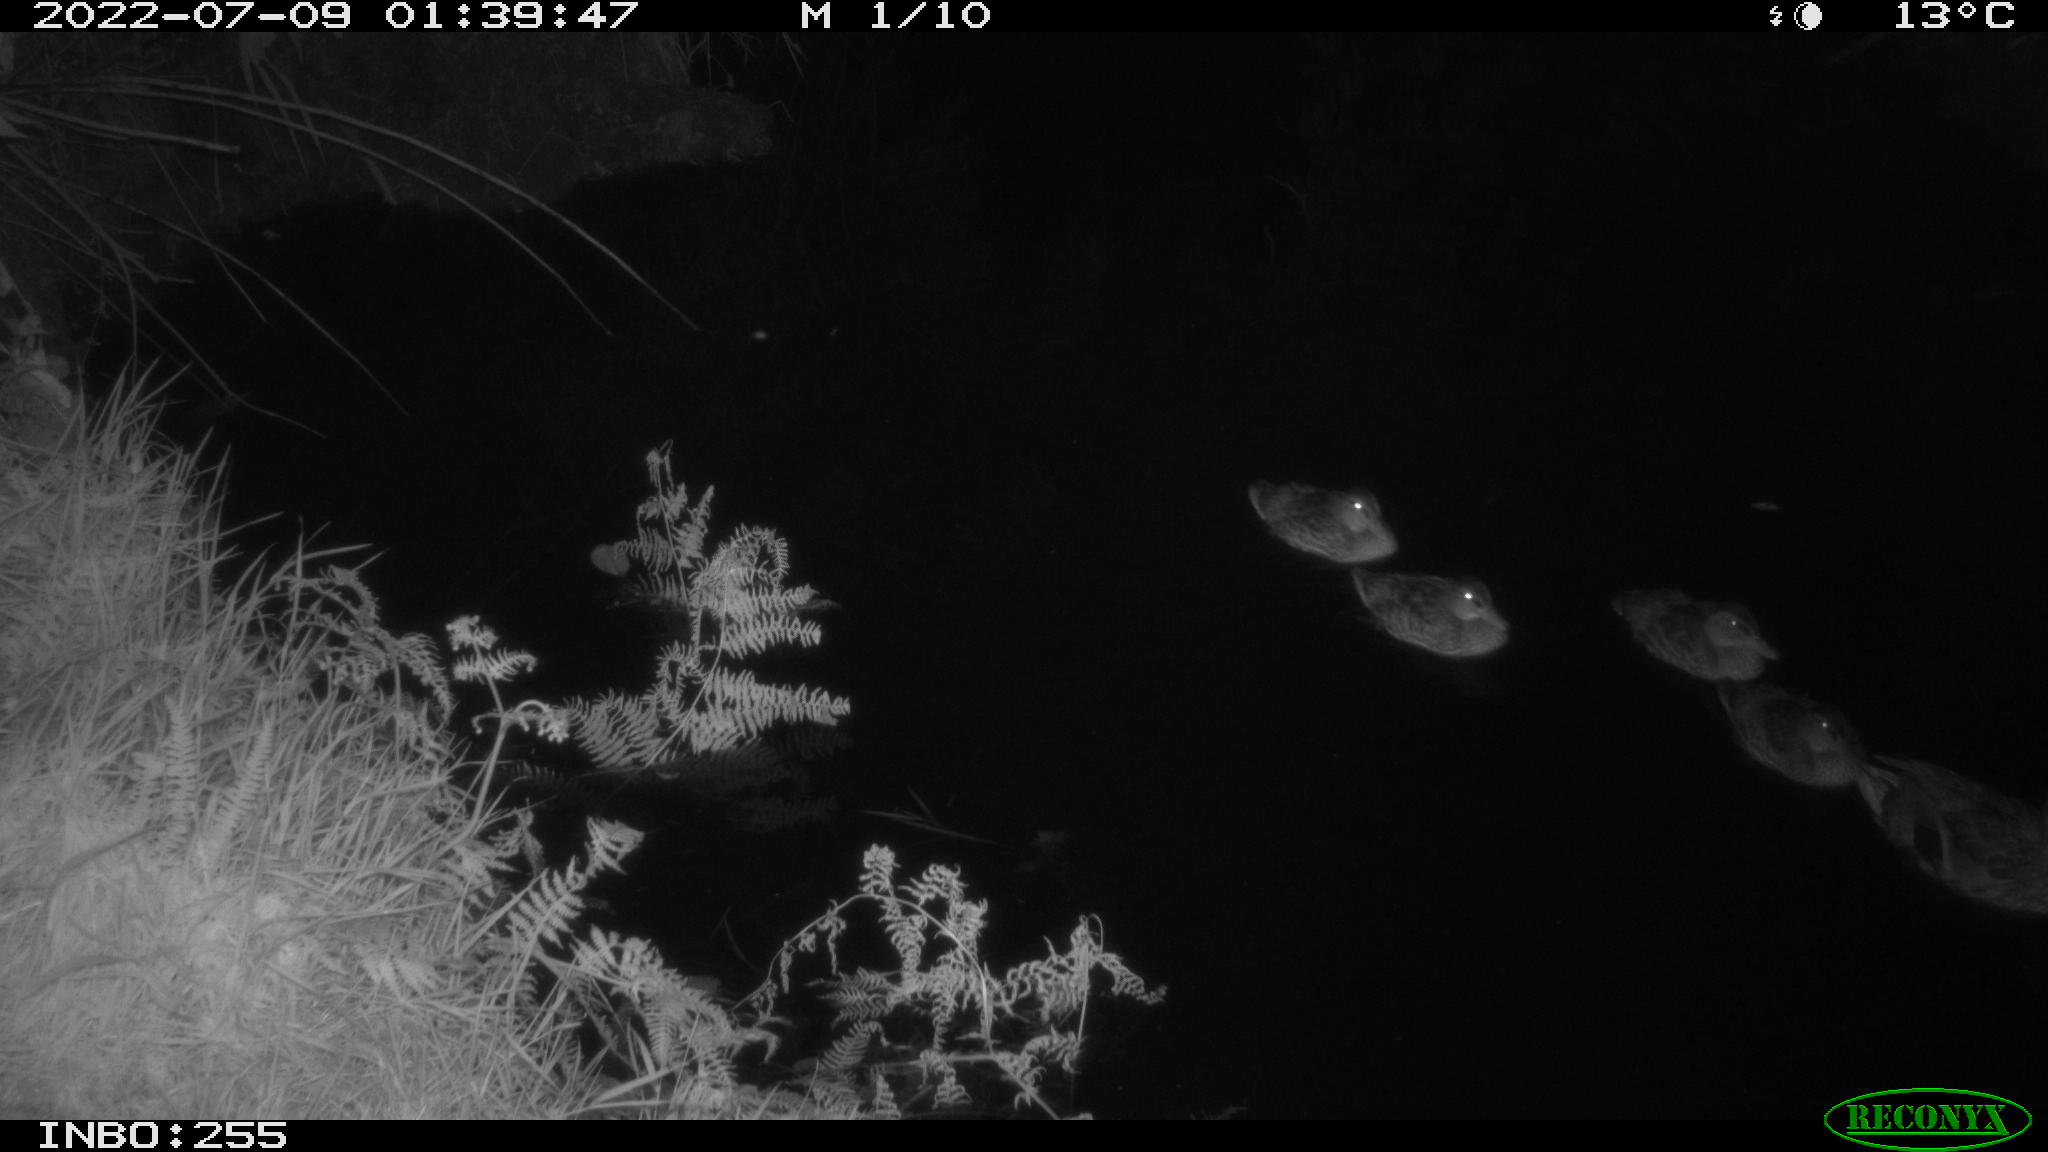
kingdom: Animalia
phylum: Chordata
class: Aves
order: Anseriformes
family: Anatidae
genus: Anas
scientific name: Anas platyrhynchos
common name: Mallard
